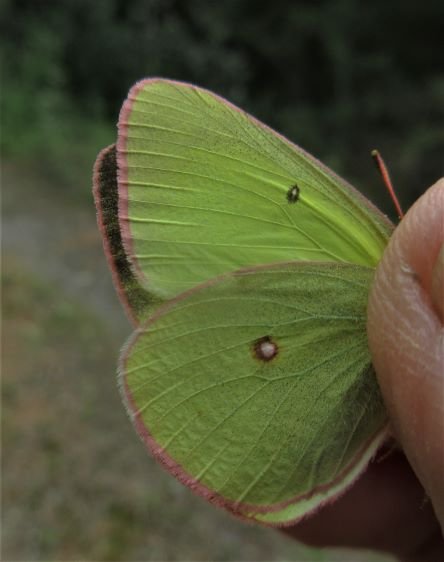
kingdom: Animalia
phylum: Arthropoda
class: Insecta
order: Lepidoptera
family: Pieridae
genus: Colias
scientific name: Colias interior
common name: Pink-edged Sulphur
